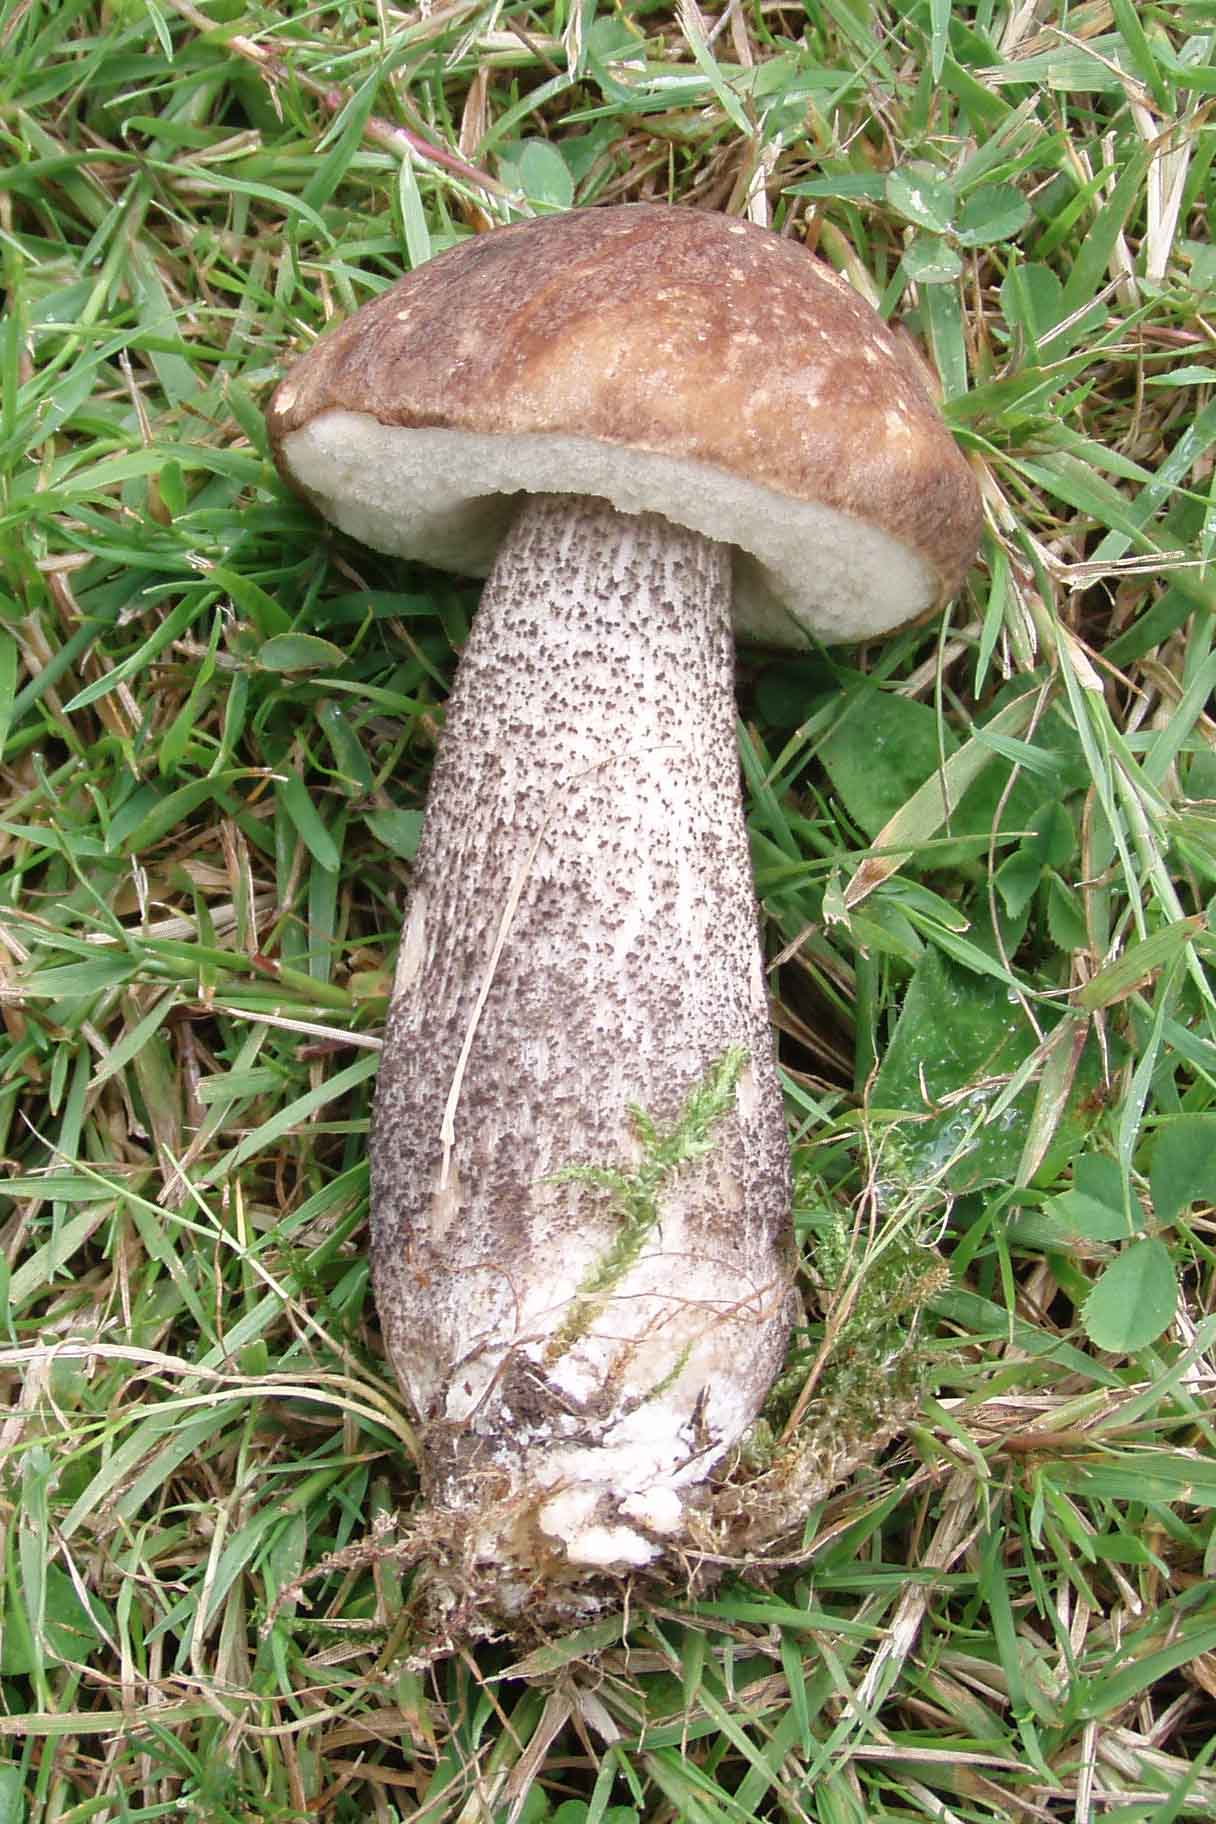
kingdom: Fungi
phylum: Basidiomycota
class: Agaricomycetes
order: Boletales
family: Boletaceae
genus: Leccinum
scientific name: Leccinum scabrum
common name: brun skælrørhat
